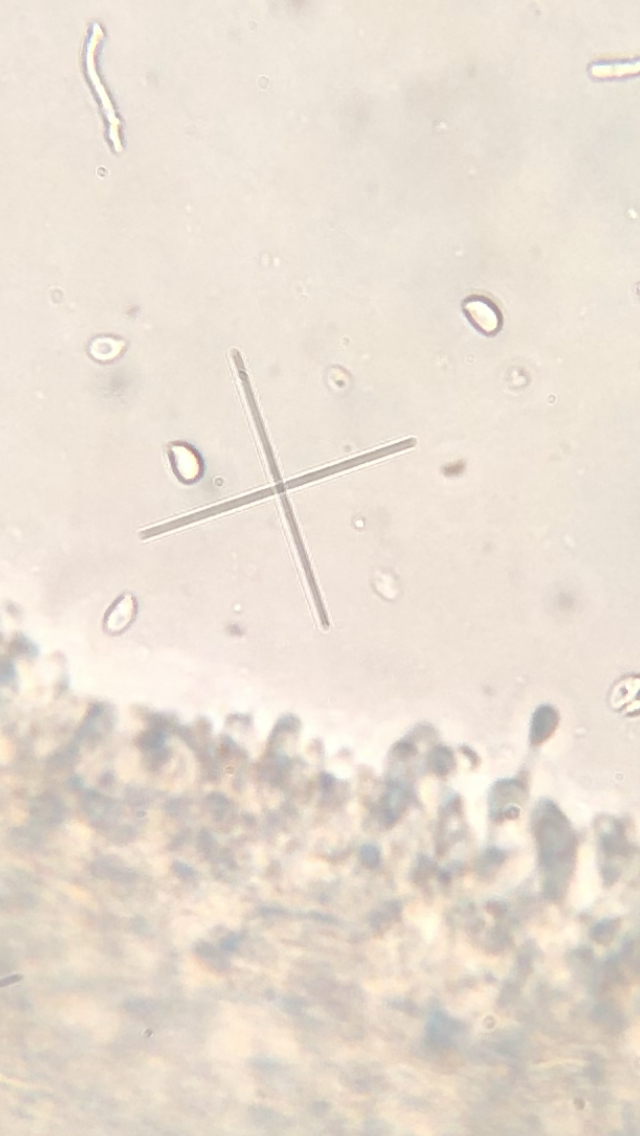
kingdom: Fungi
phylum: Basidiomycota
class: Agaricomycetes
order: Agaricales
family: Omphalotaceae
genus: Gymnopus
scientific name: Gymnopus
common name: fladhat
